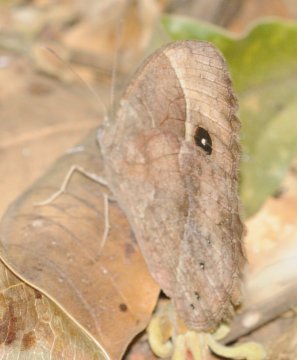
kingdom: Animalia
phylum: Arthropoda
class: Insecta
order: Lepidoptera
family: Nymphalidae
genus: Bicyclus
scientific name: Bicyclus cottrelli
